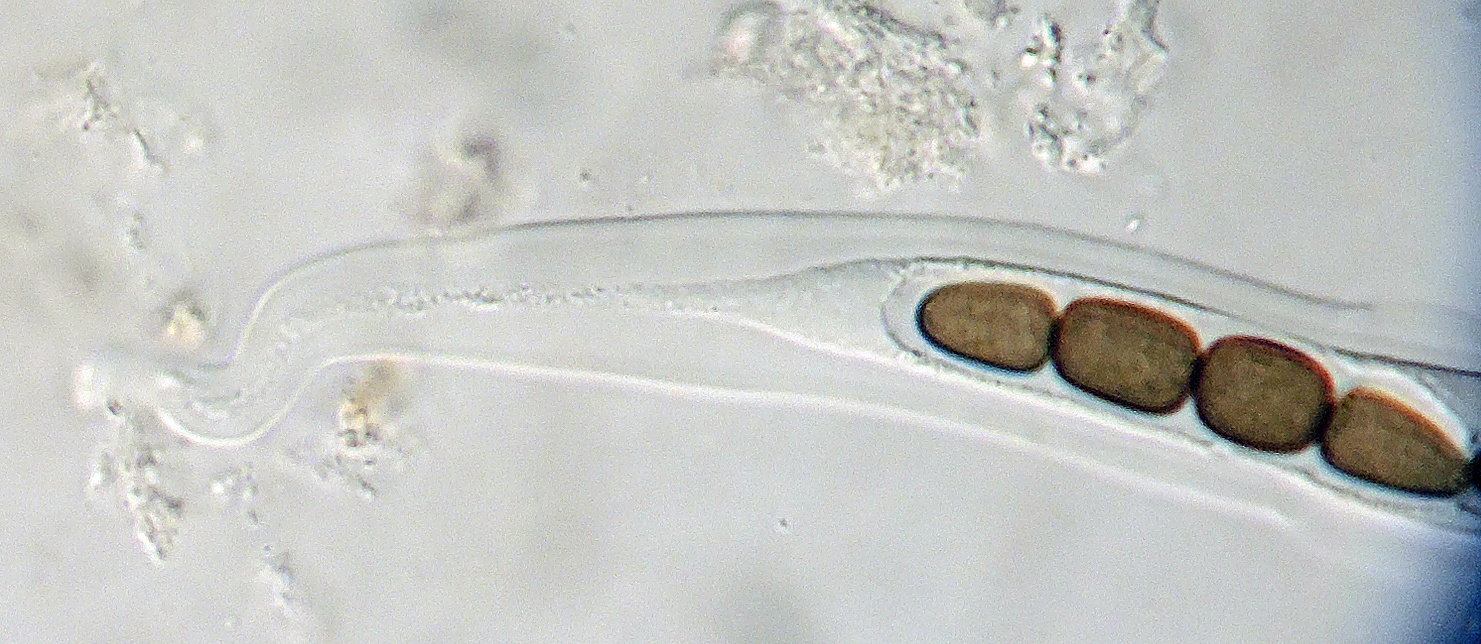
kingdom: Fungi
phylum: Ascomycota
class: Dothideomycetes
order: Pleosporales
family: Sporormiaceae
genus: Preussia
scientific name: Preussia dubia
